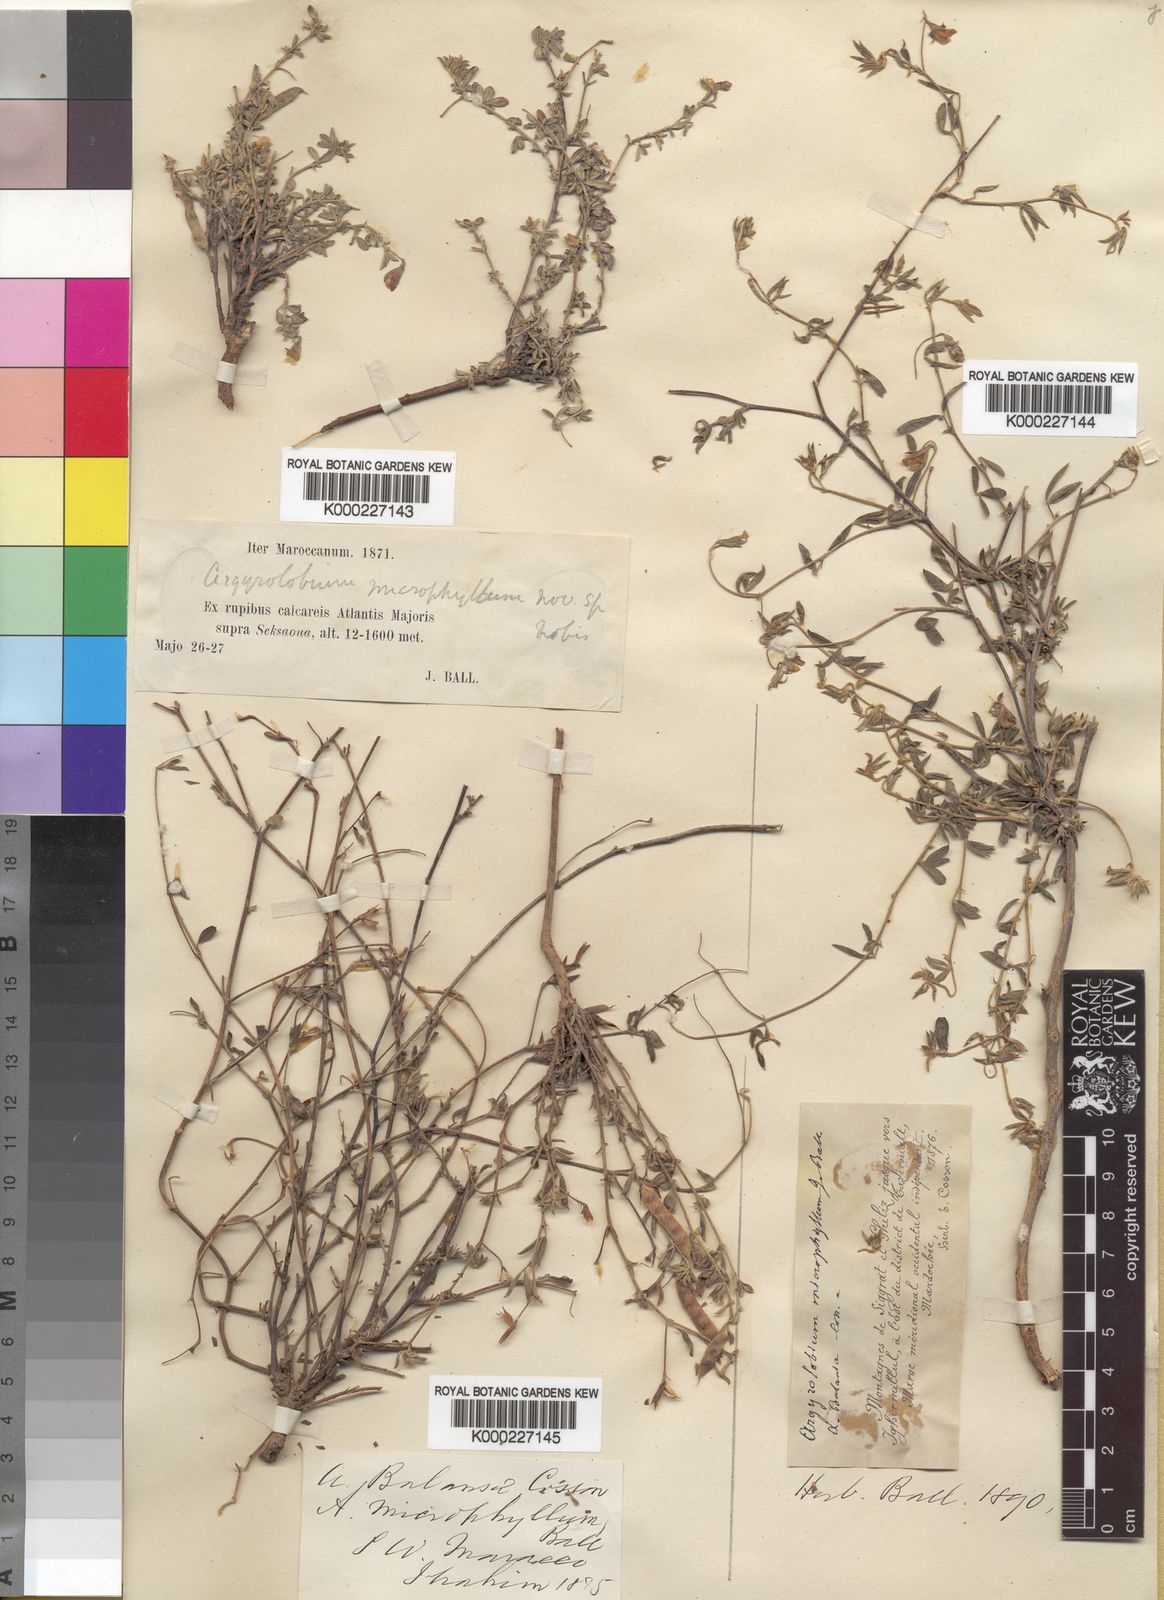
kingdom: Plantae
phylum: Tracheophyta
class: Magnoliopsida
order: Fabales
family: Fabaceae
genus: Argyrolobium
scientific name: Argyrolobium microphyllum
